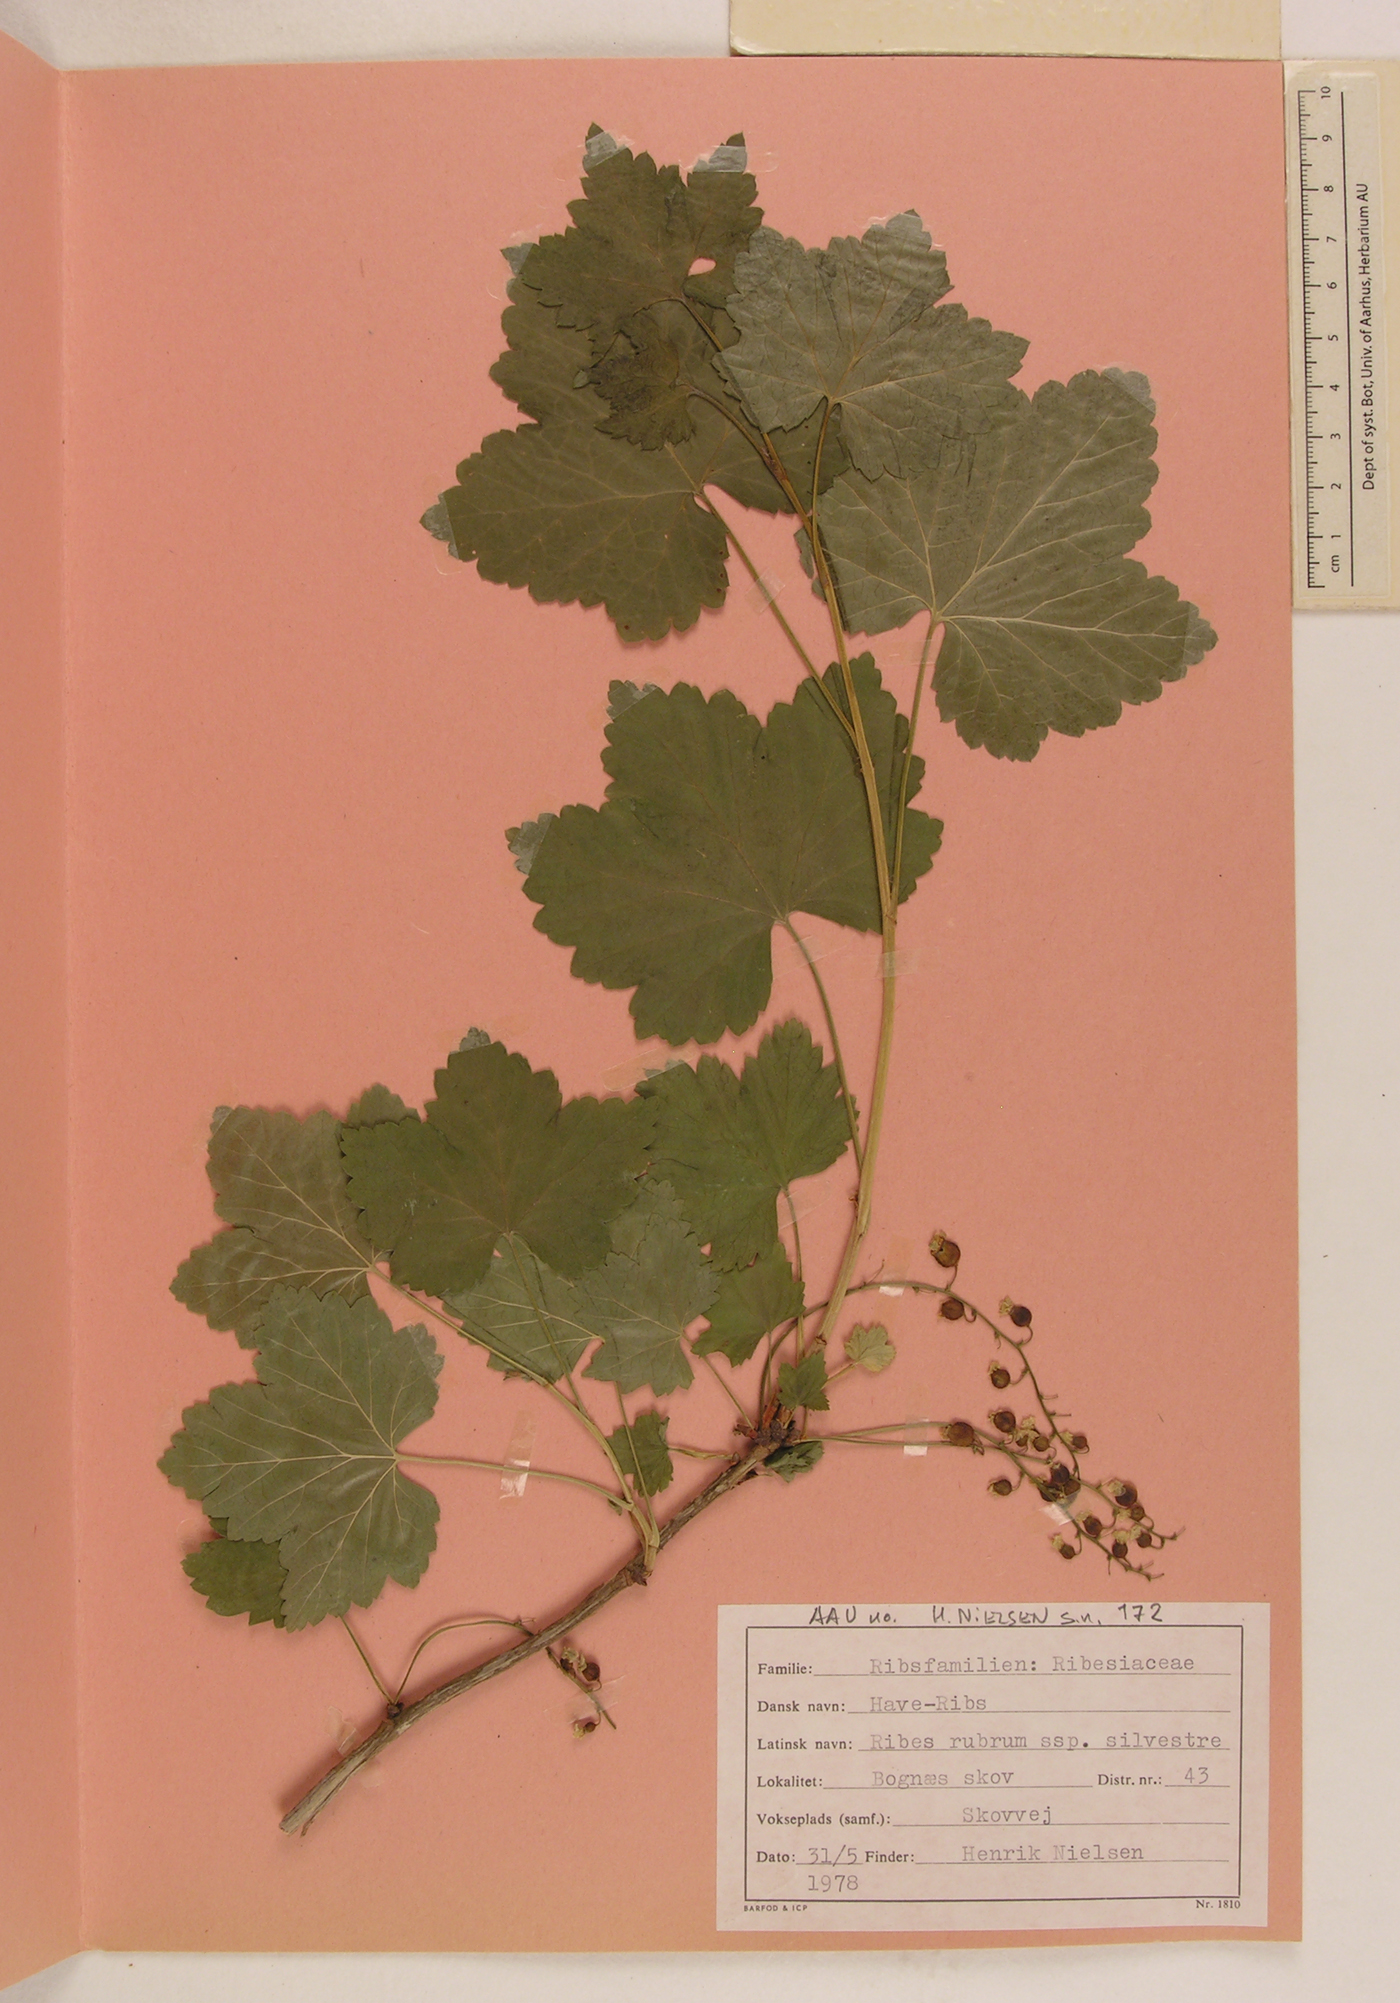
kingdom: Plantae
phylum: Tracheophyta
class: Magnoliopsida
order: Saxifragales
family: Grossulariaceae
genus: Ribes
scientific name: Ribes rubrum
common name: Red currant
